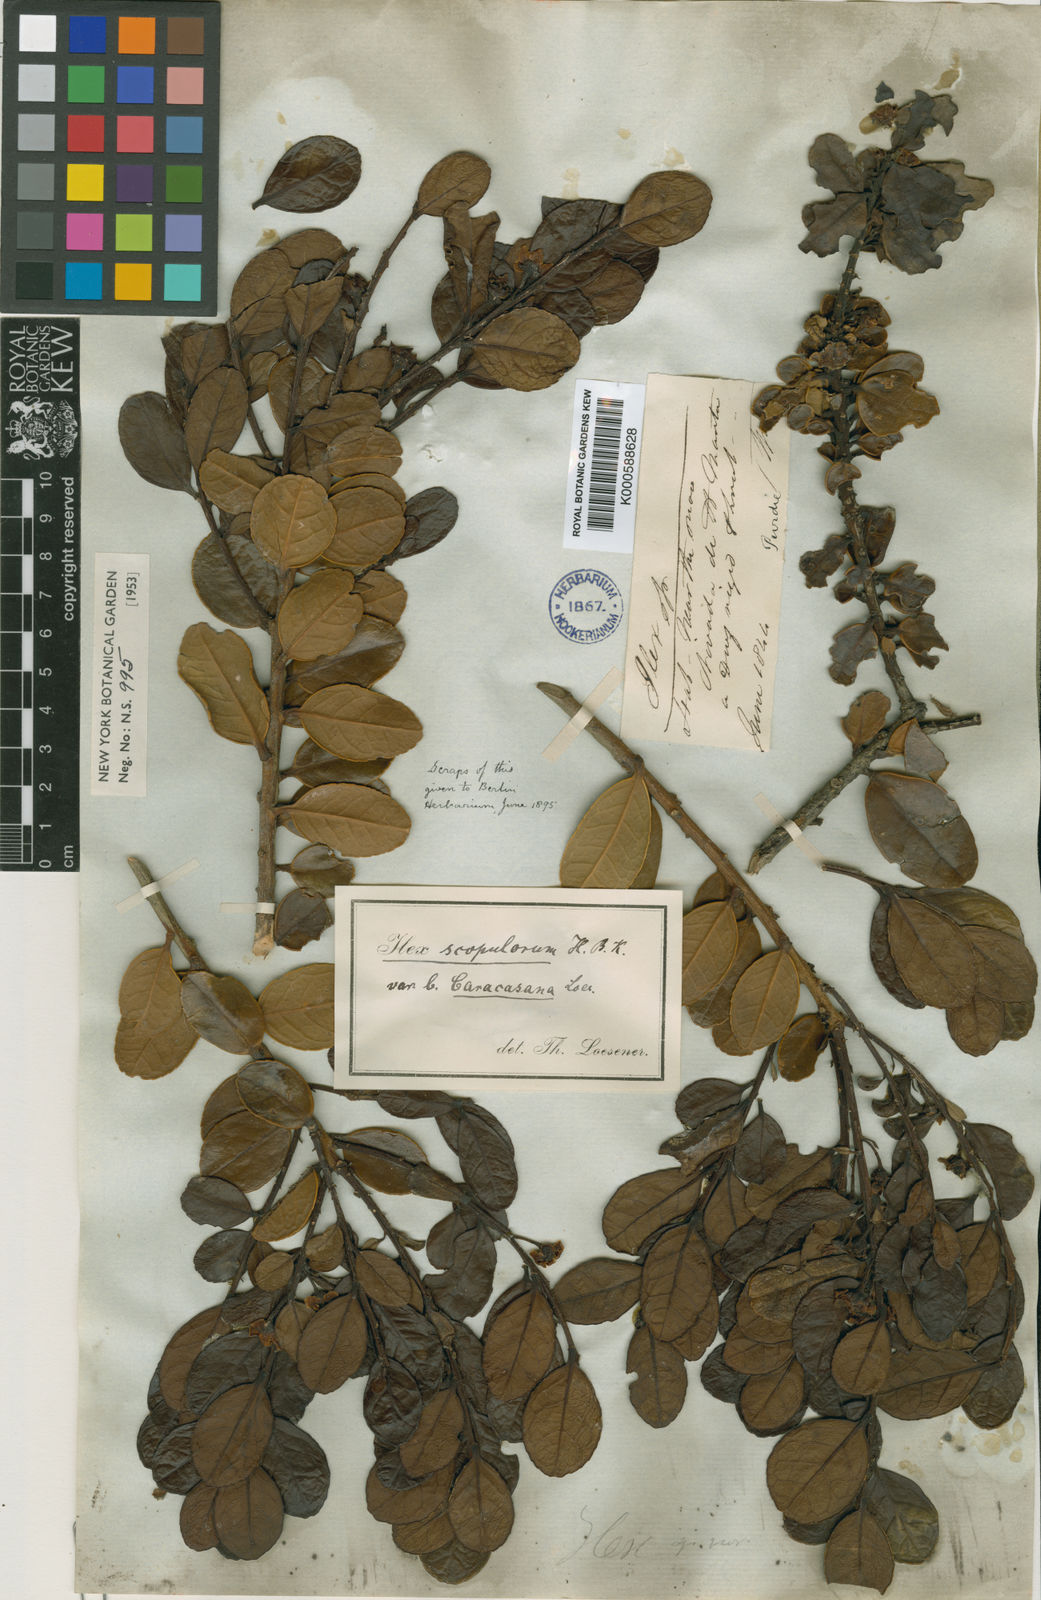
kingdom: Plantae
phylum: Tracheophyta
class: Magnoliopsida
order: Aquifoliales
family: Aquifoliaceae
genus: Ilex
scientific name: Ilex scopulorum
